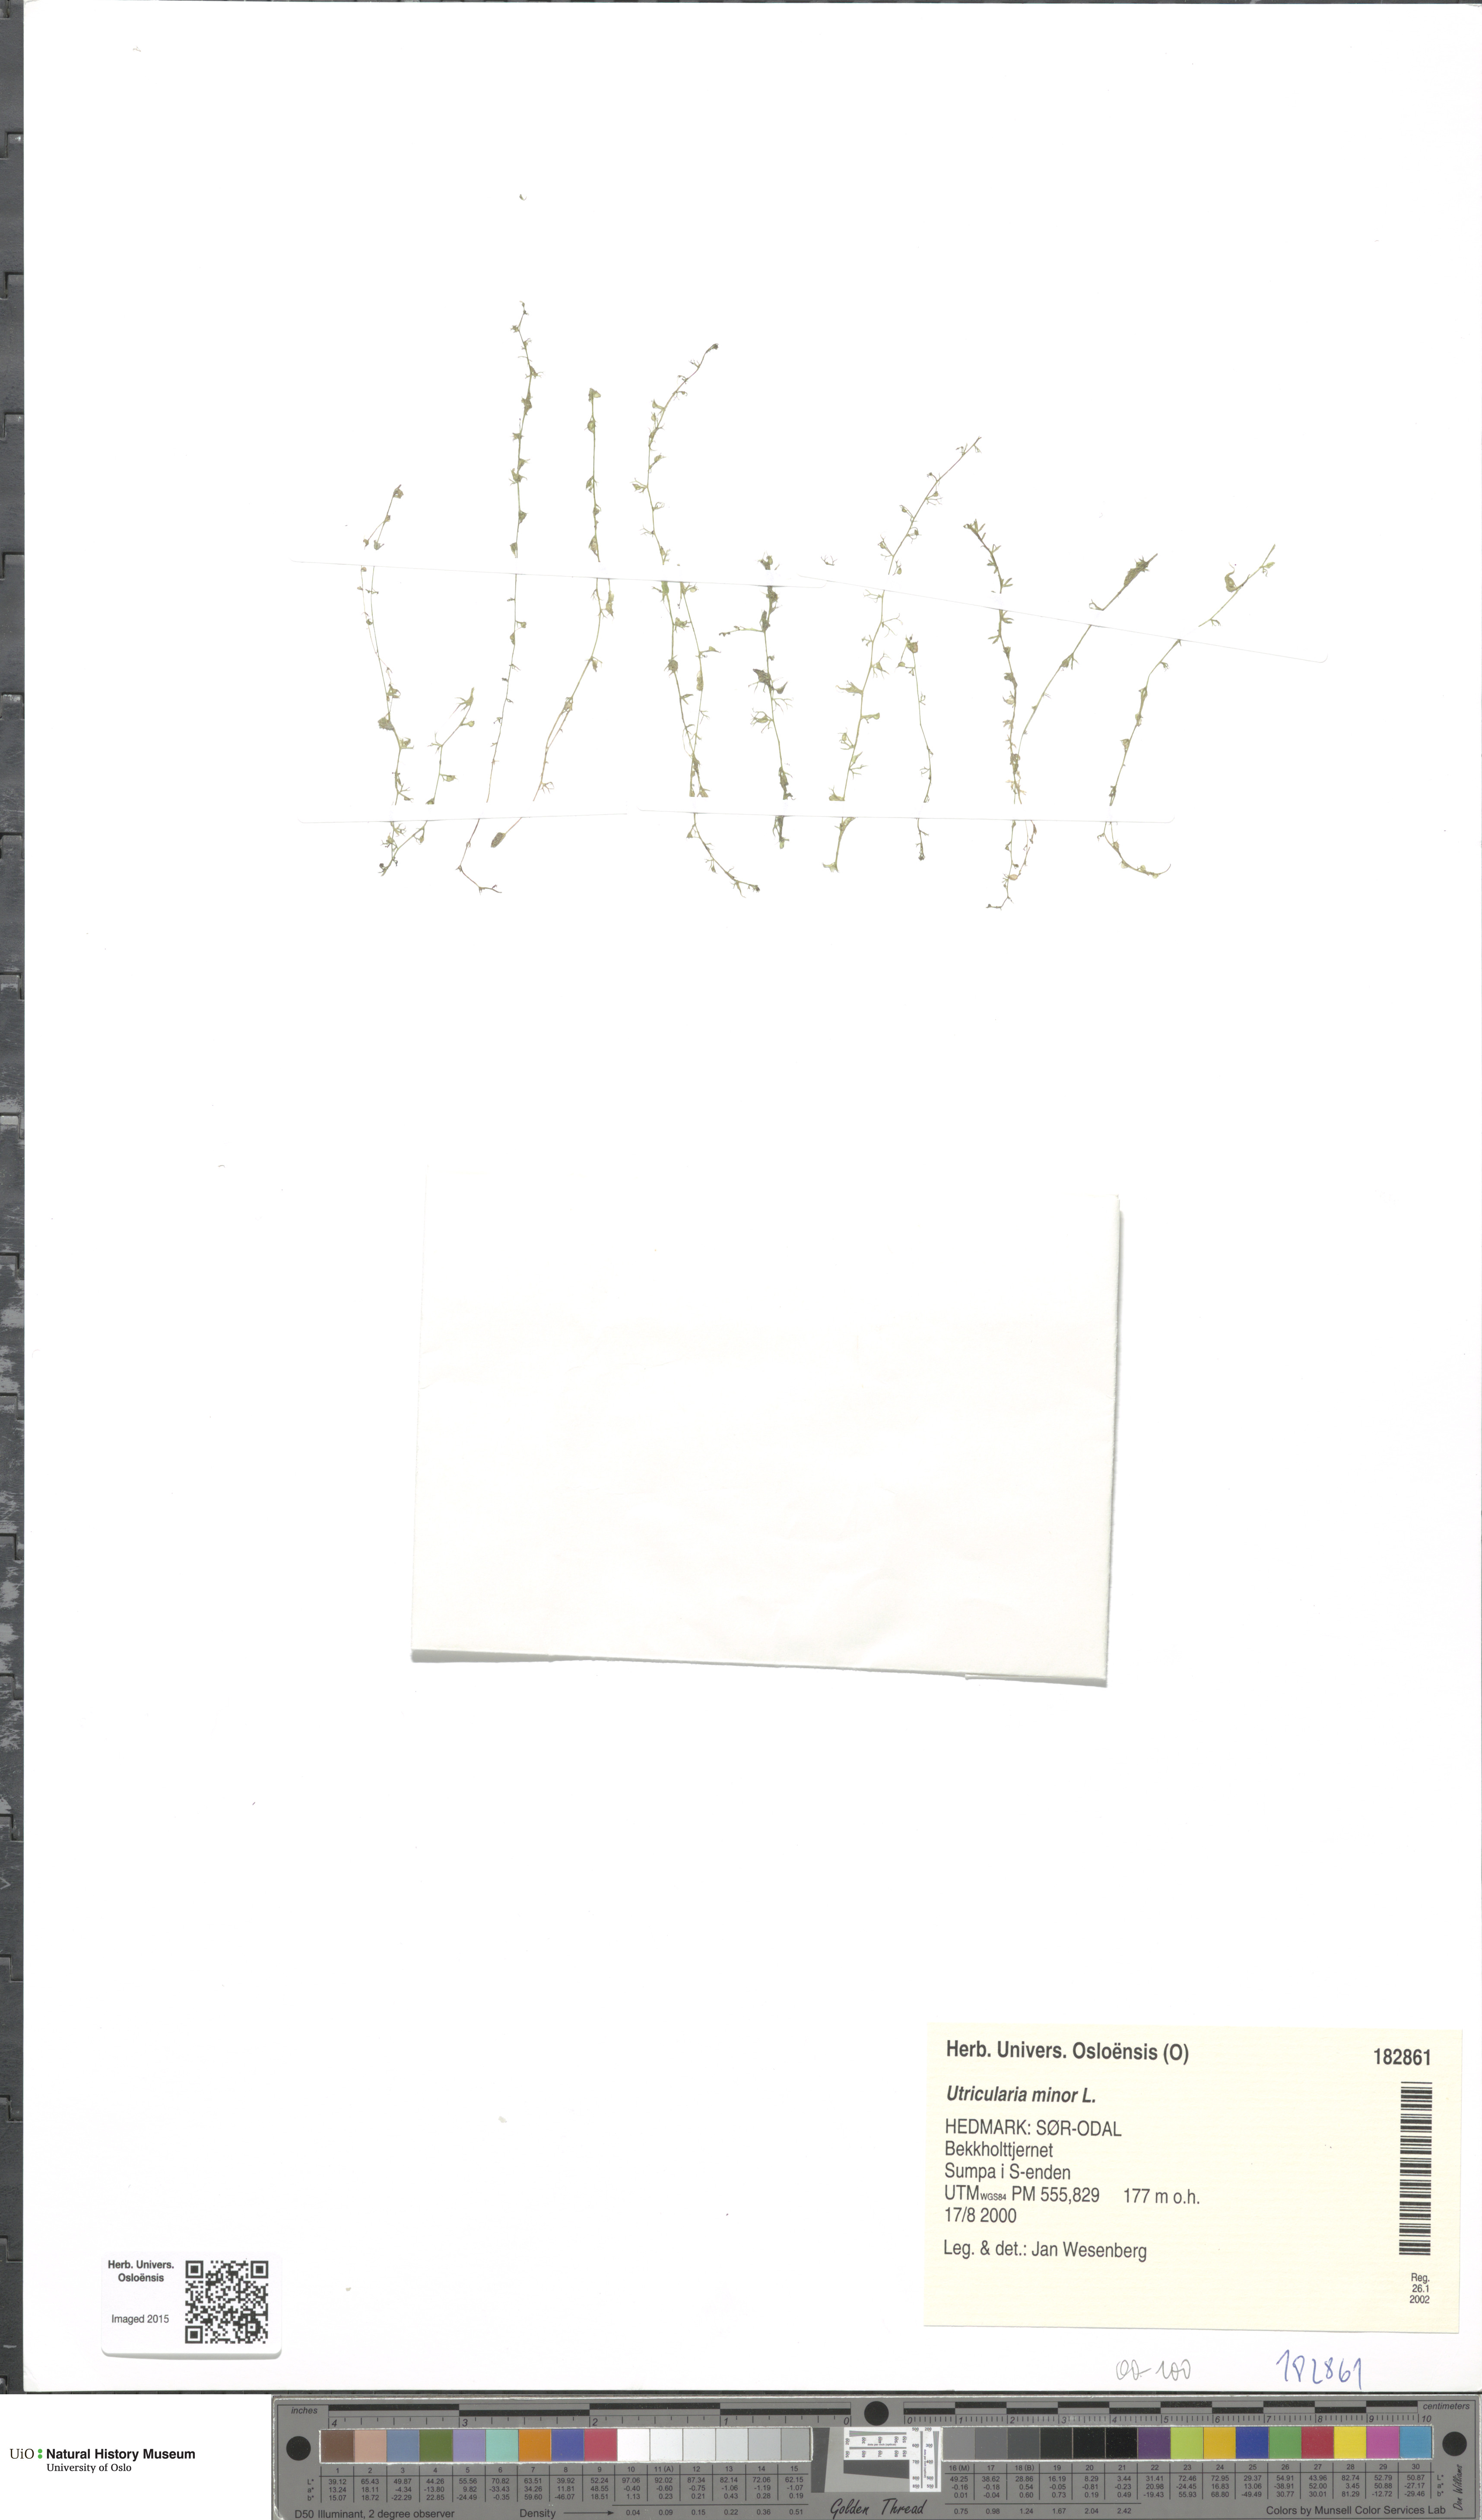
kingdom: Plantae
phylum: Tracheophyta
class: Magnoliopsida
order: Lamiales
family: Lentibulariaceae
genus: Utricularia
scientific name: Utricularia minor
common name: Lesser bladderwort
